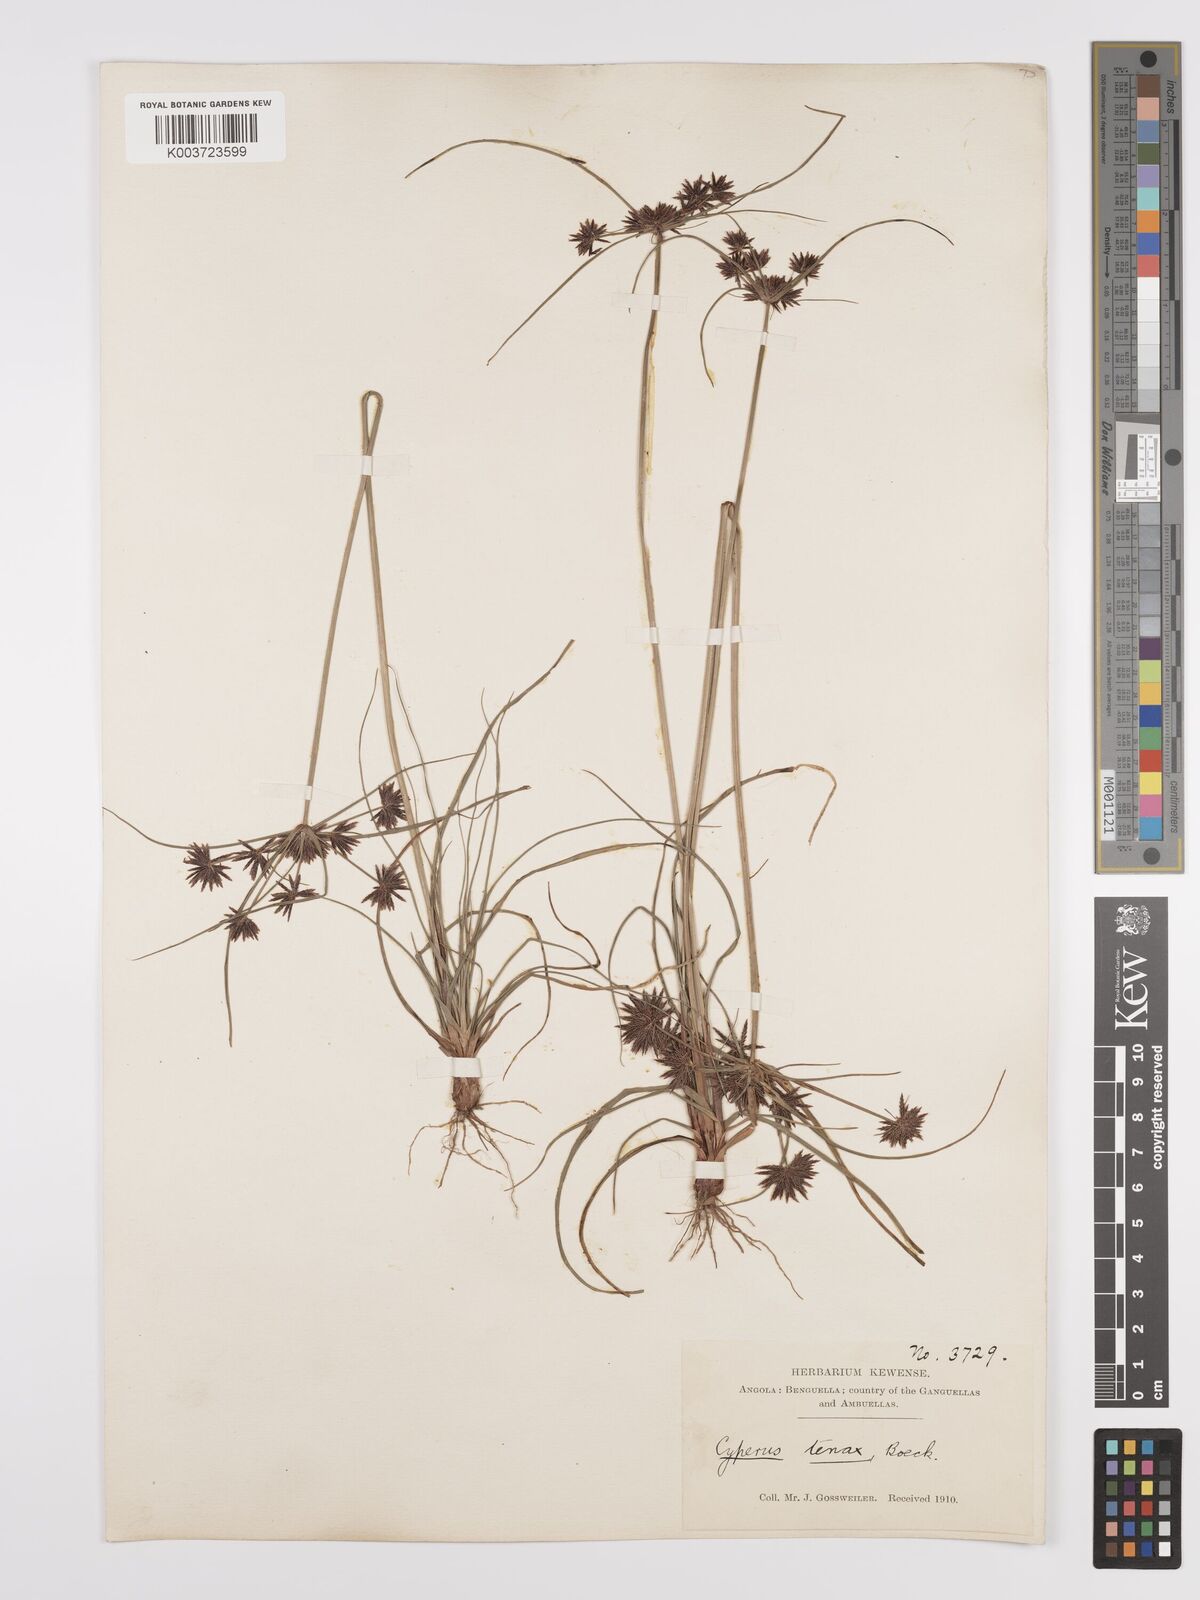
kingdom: Plantae
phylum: Tracheophyta
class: Liliopsida
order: Poales
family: Cyperaceae
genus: Cyperus
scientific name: Cyperus tenax
